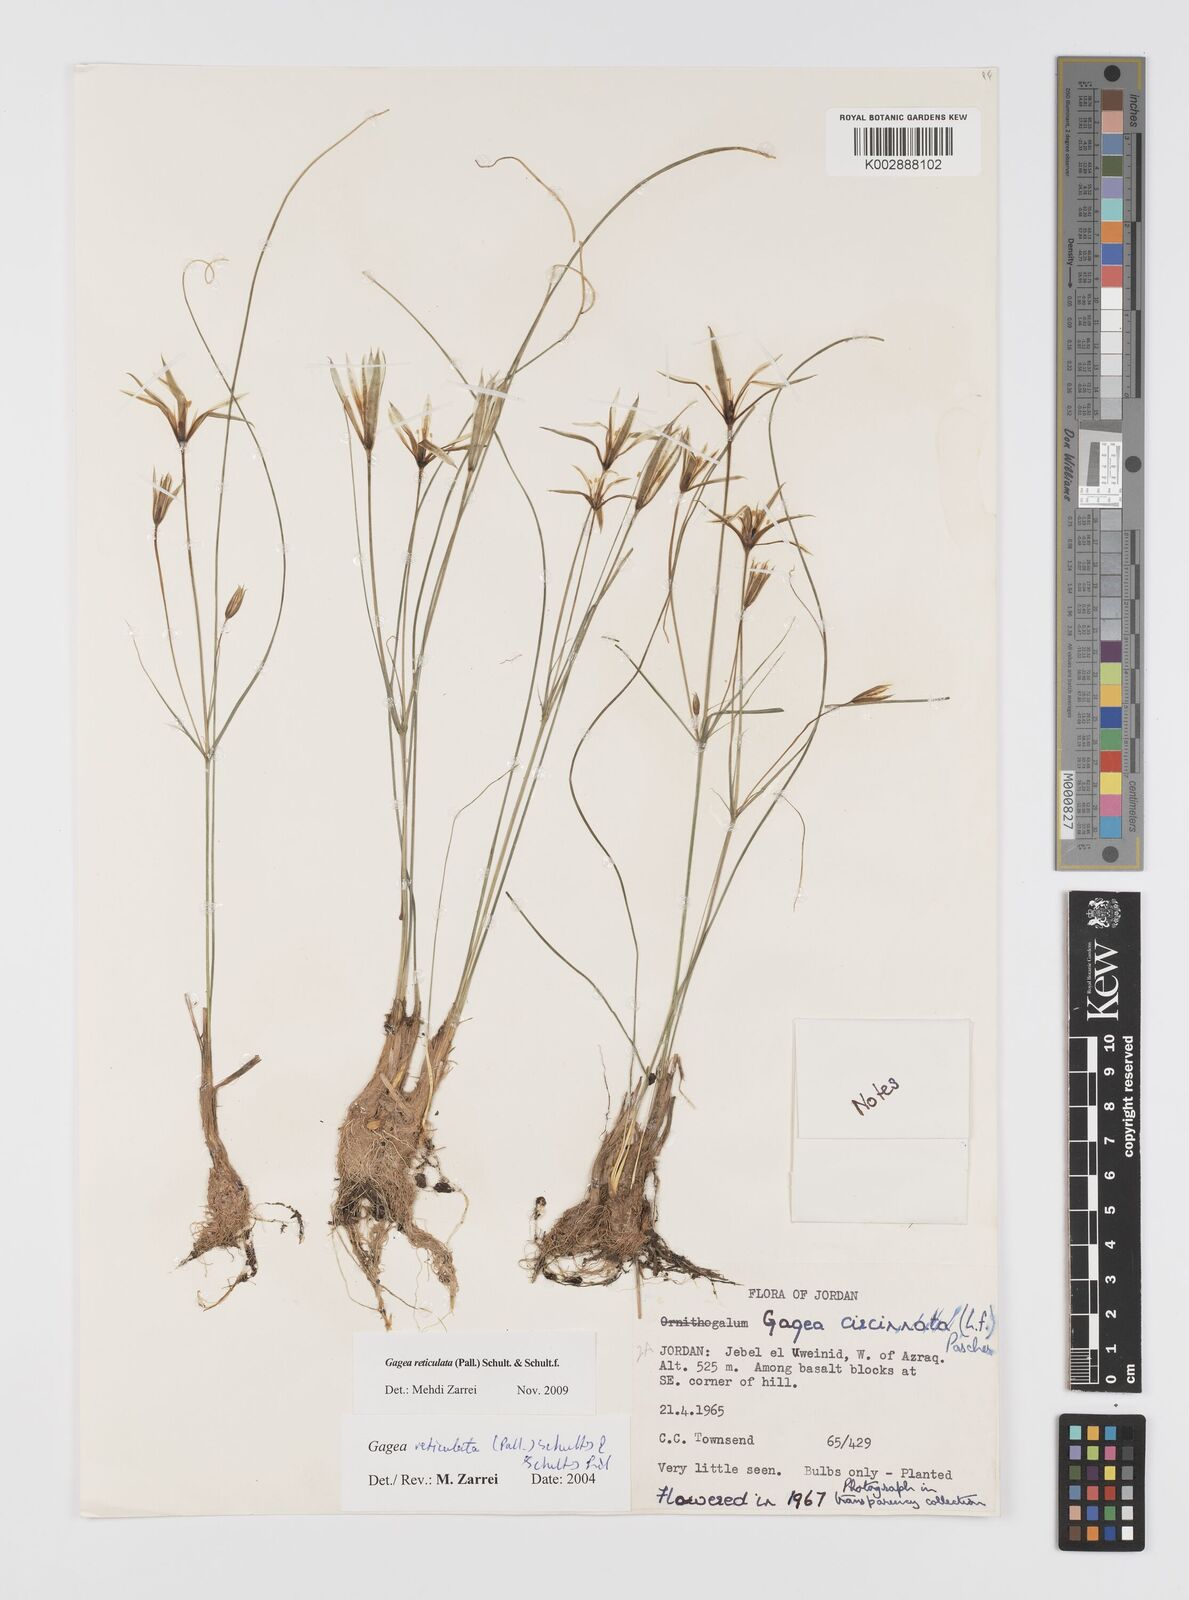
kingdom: Plantae
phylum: Tracheophyta
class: Liliopsida
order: Liliales
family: Liliaceae
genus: Gagea
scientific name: Gagea reticulata
